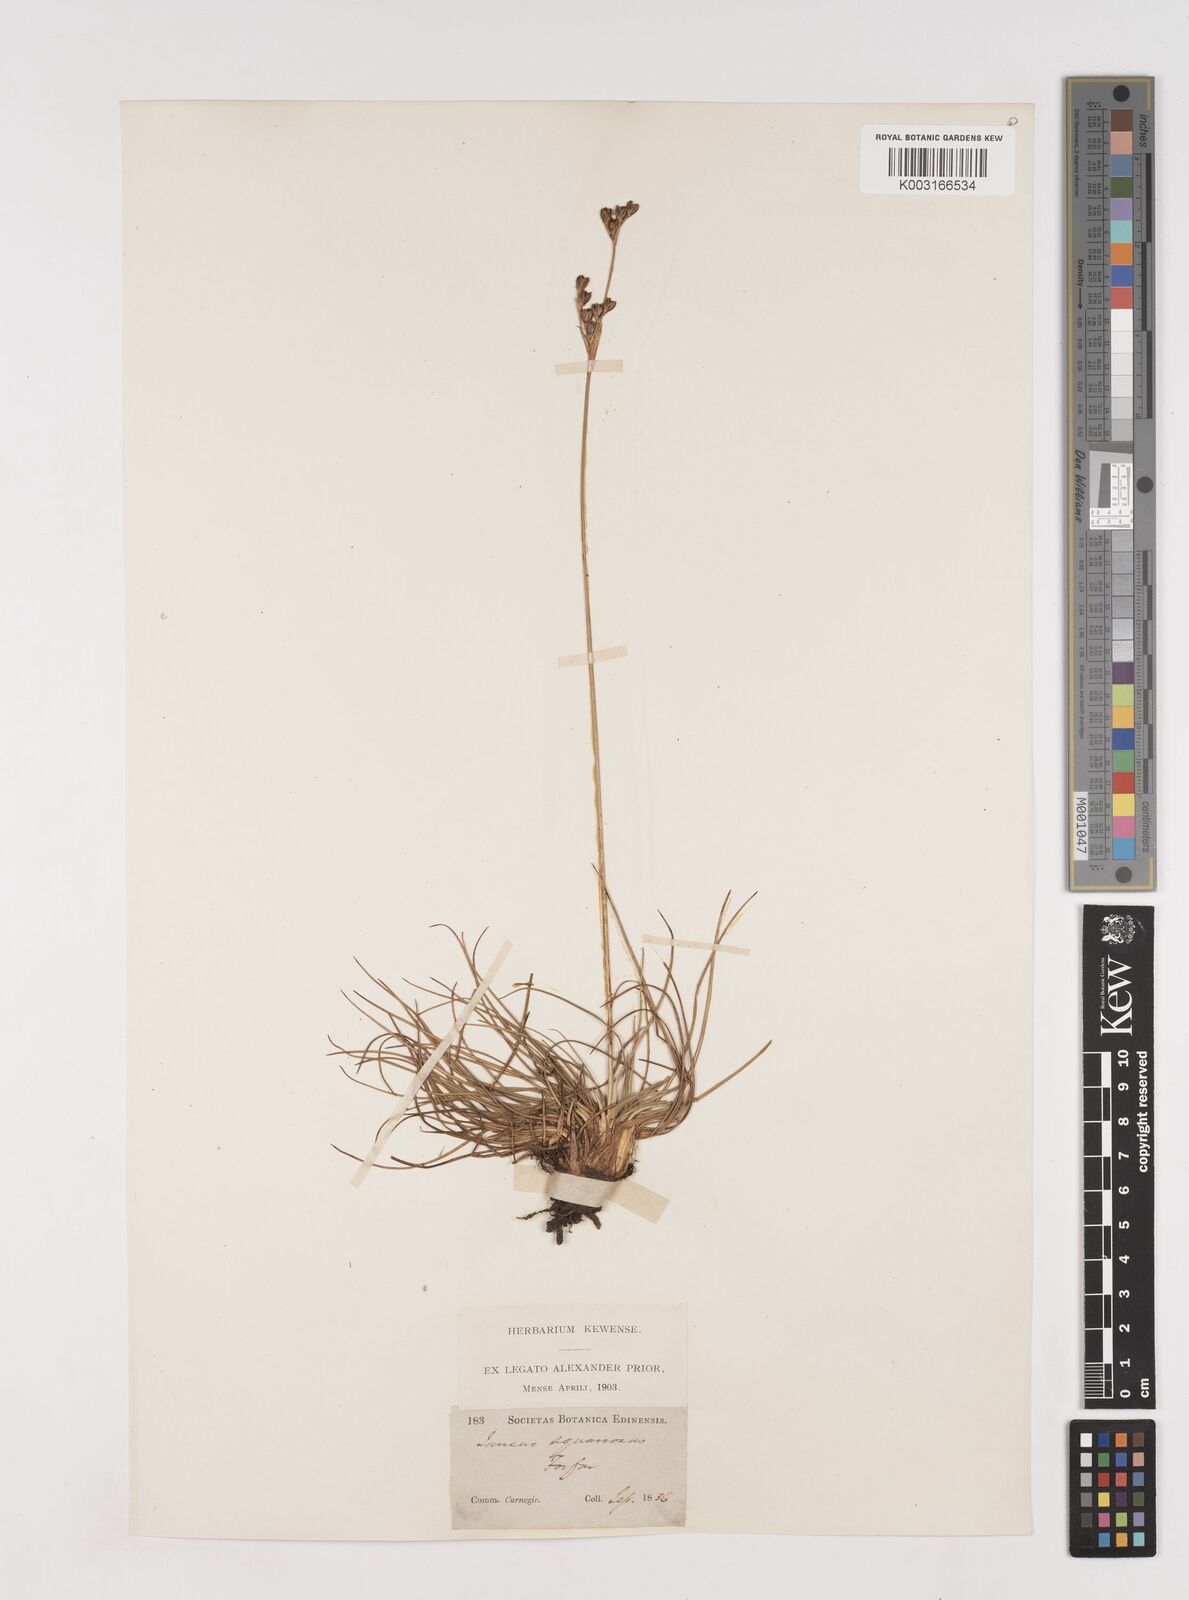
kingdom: Plantae
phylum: Tracheophyta
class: Liliopsida
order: Poales
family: Juncaceae
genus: Juncus
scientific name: Juncus squarrosus
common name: Heath rush
